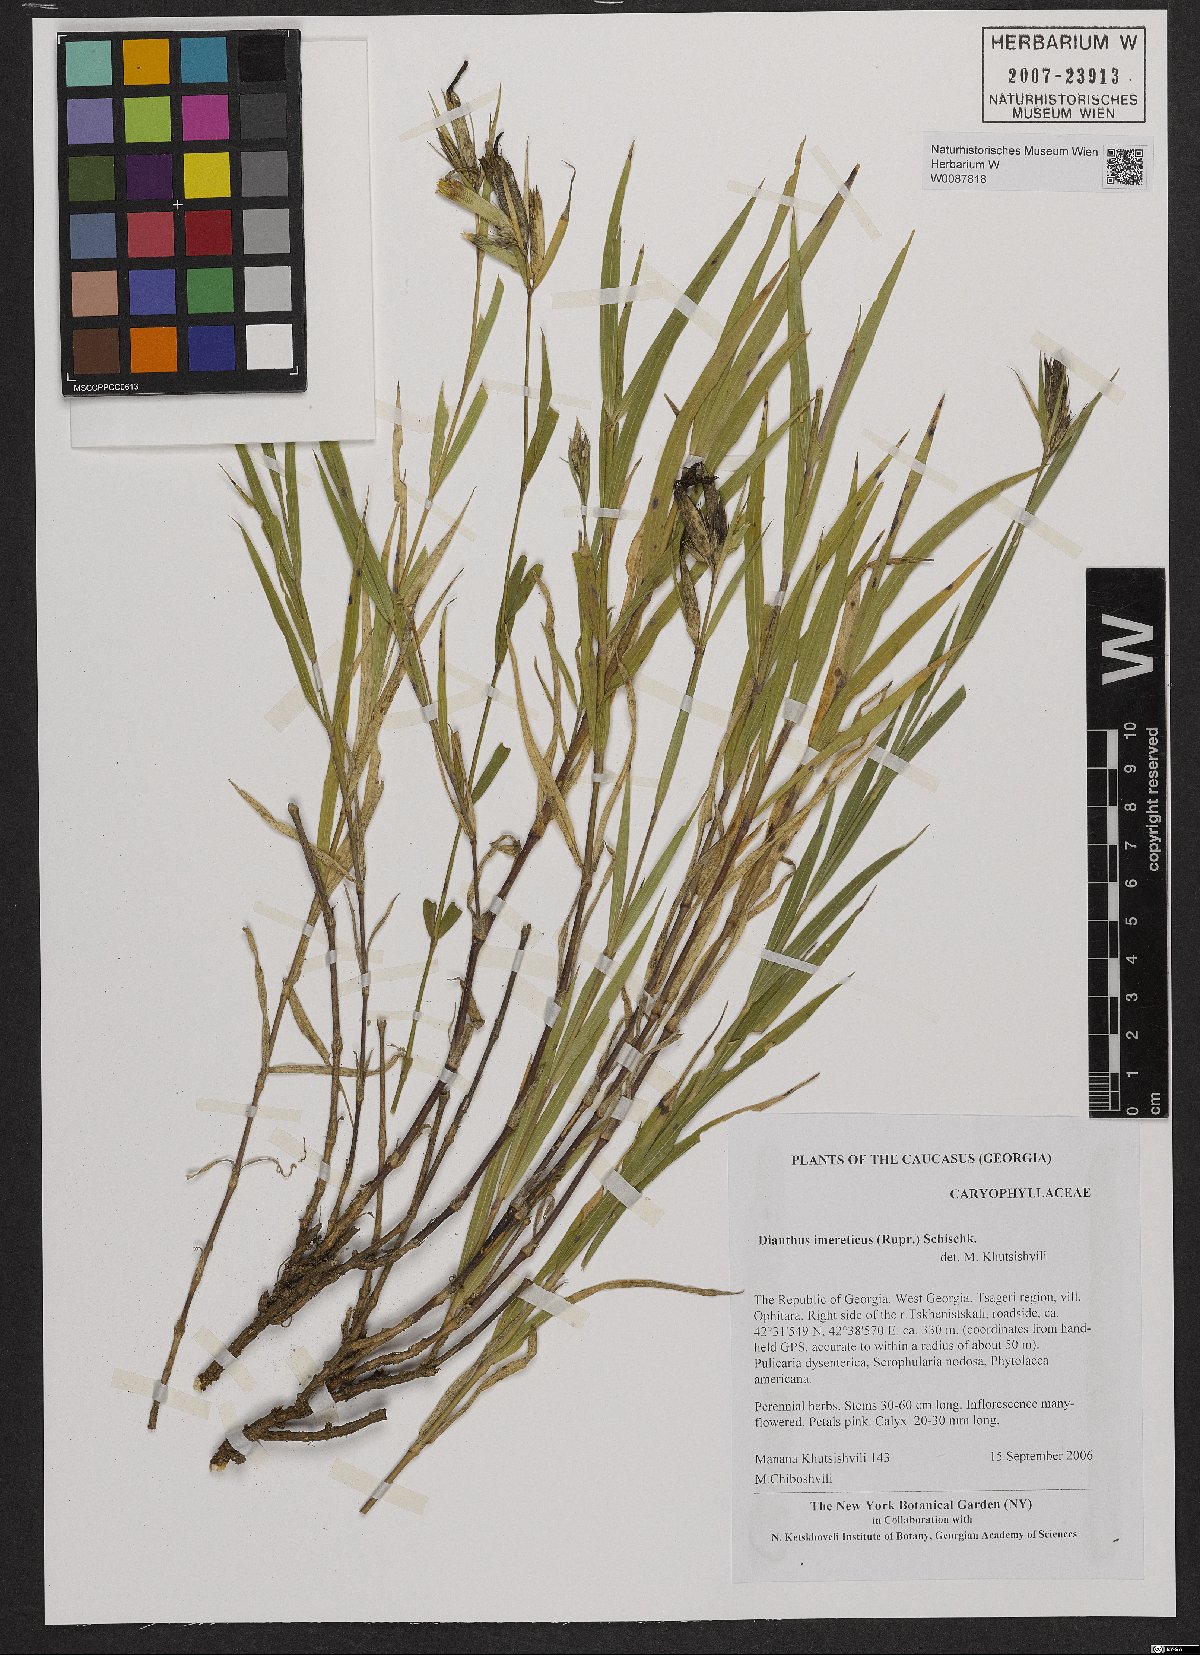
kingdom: Plantae
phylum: Tracheophyta
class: Magnoliopsida
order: Caryophyllales
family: Caryophyllaceae
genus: Dianthus
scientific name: Dianthus imereticus
